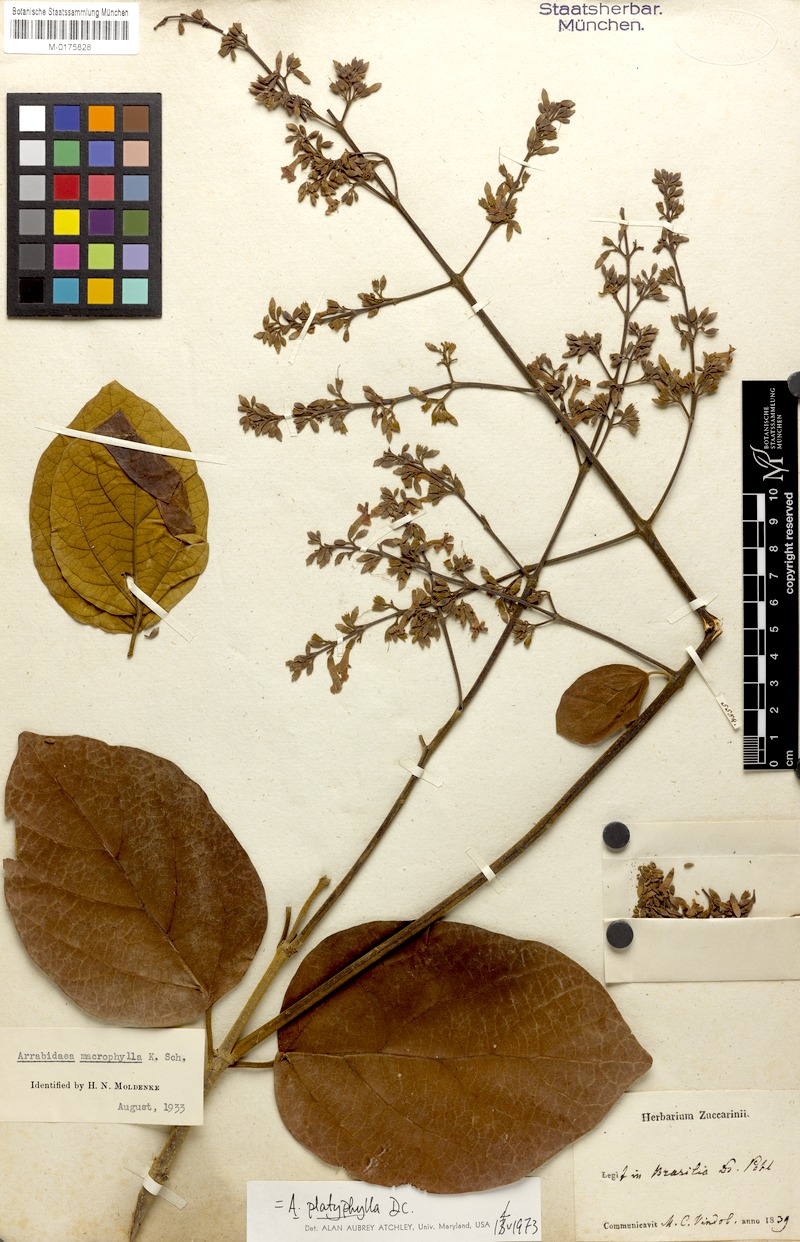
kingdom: Plantae
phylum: Tracheophyta
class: Magnoliopsida
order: Lamiales
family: Bignoniaceae
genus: Xylophragma
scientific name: Xylophragma platyphyllum
